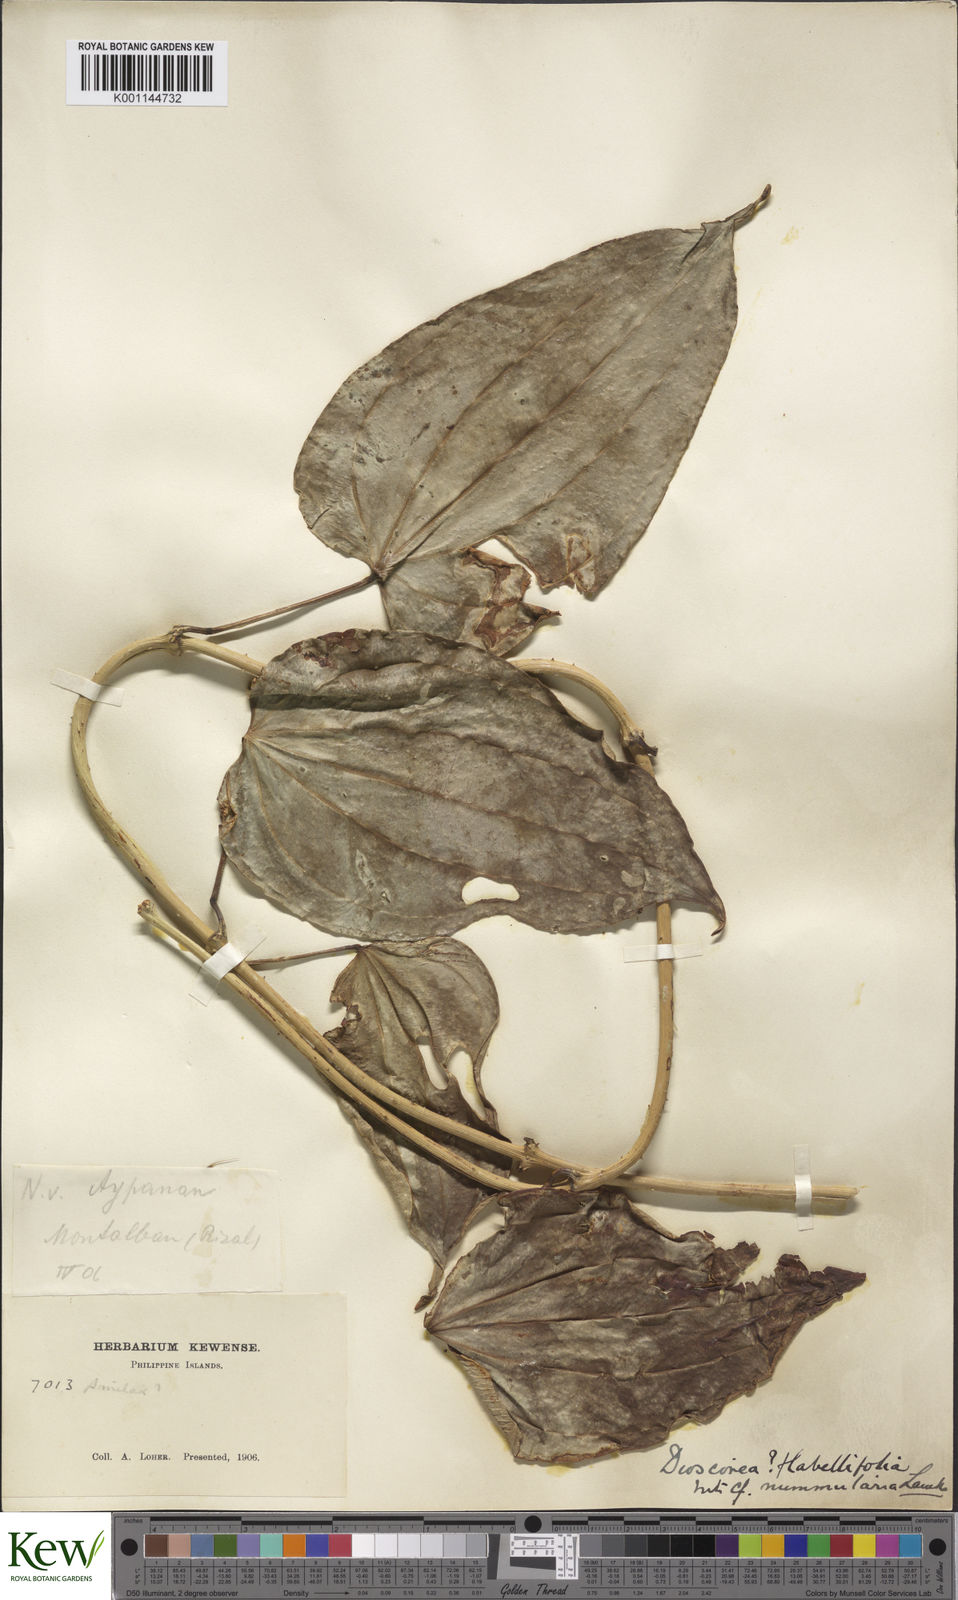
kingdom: Plantae
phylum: Tracheophyta
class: Liliopsida
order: Dioscoreales
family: Dioscoreaceae
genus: Dioscorea
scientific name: Dioscorea flabellifolia
